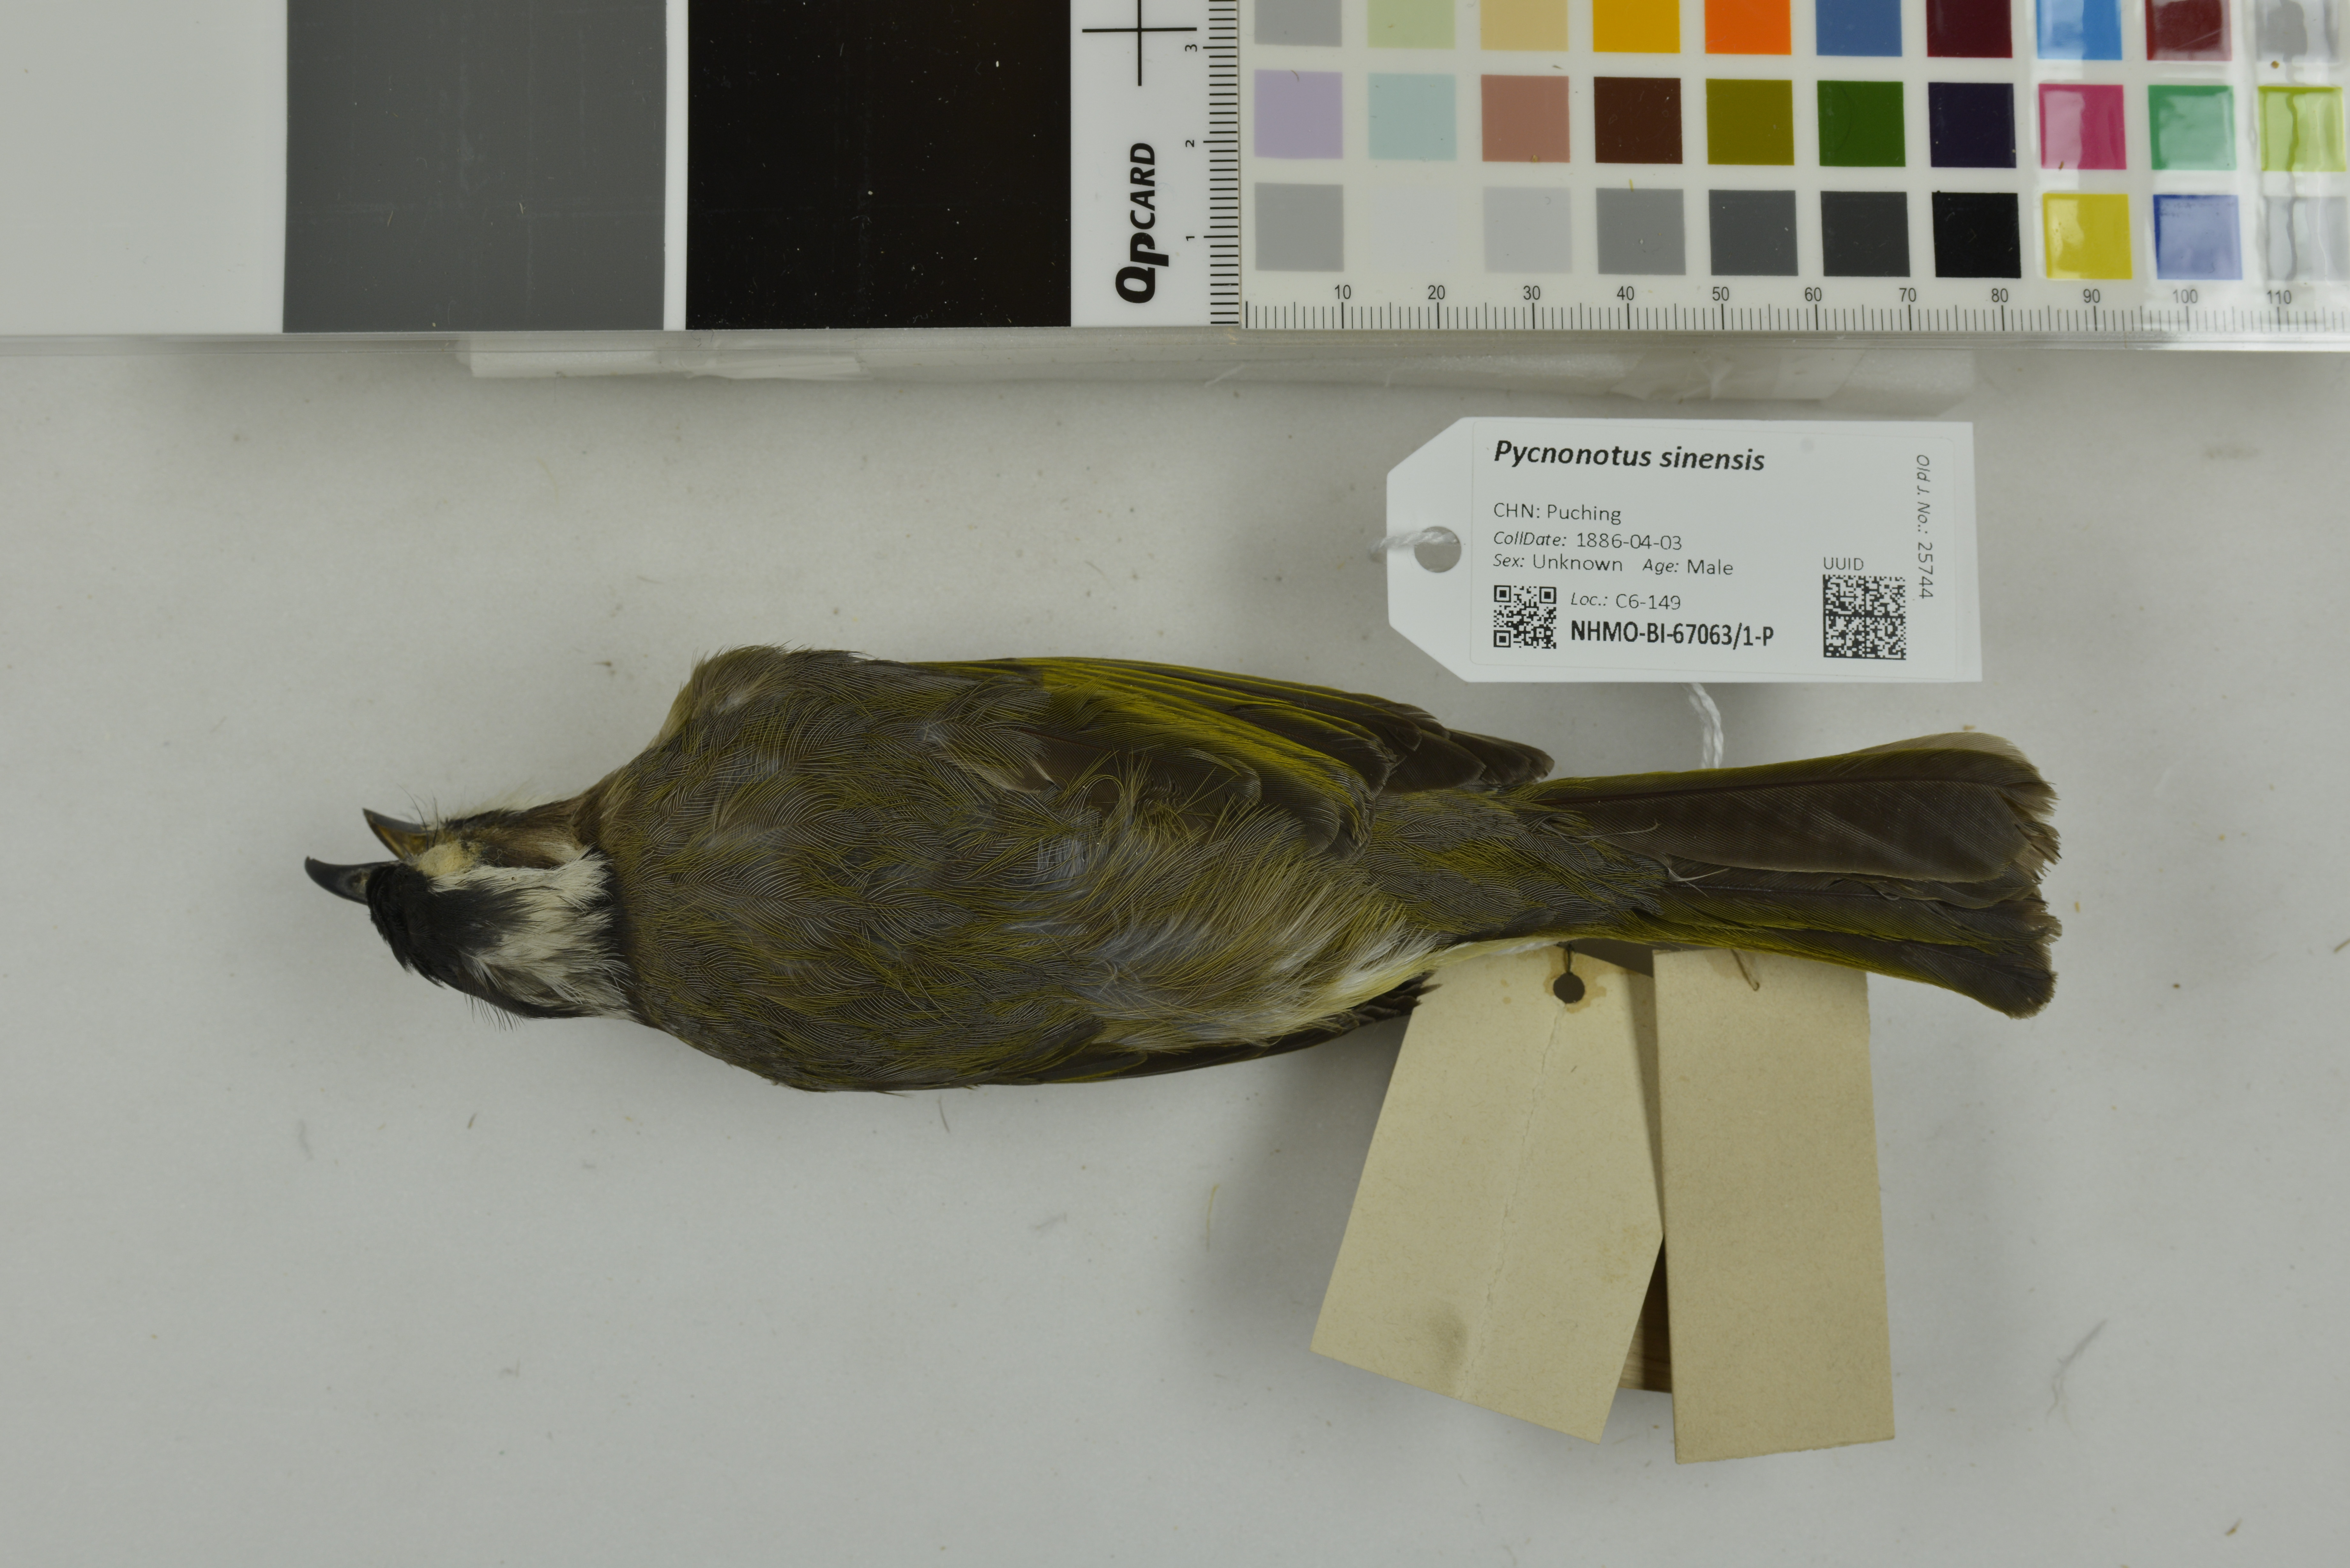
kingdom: Animalia
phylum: Chordata
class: Aves
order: Passeriformes
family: Pycnonotidae
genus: Pycnonotus
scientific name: Pycnonotus sinensis
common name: Light-vented bulbul
